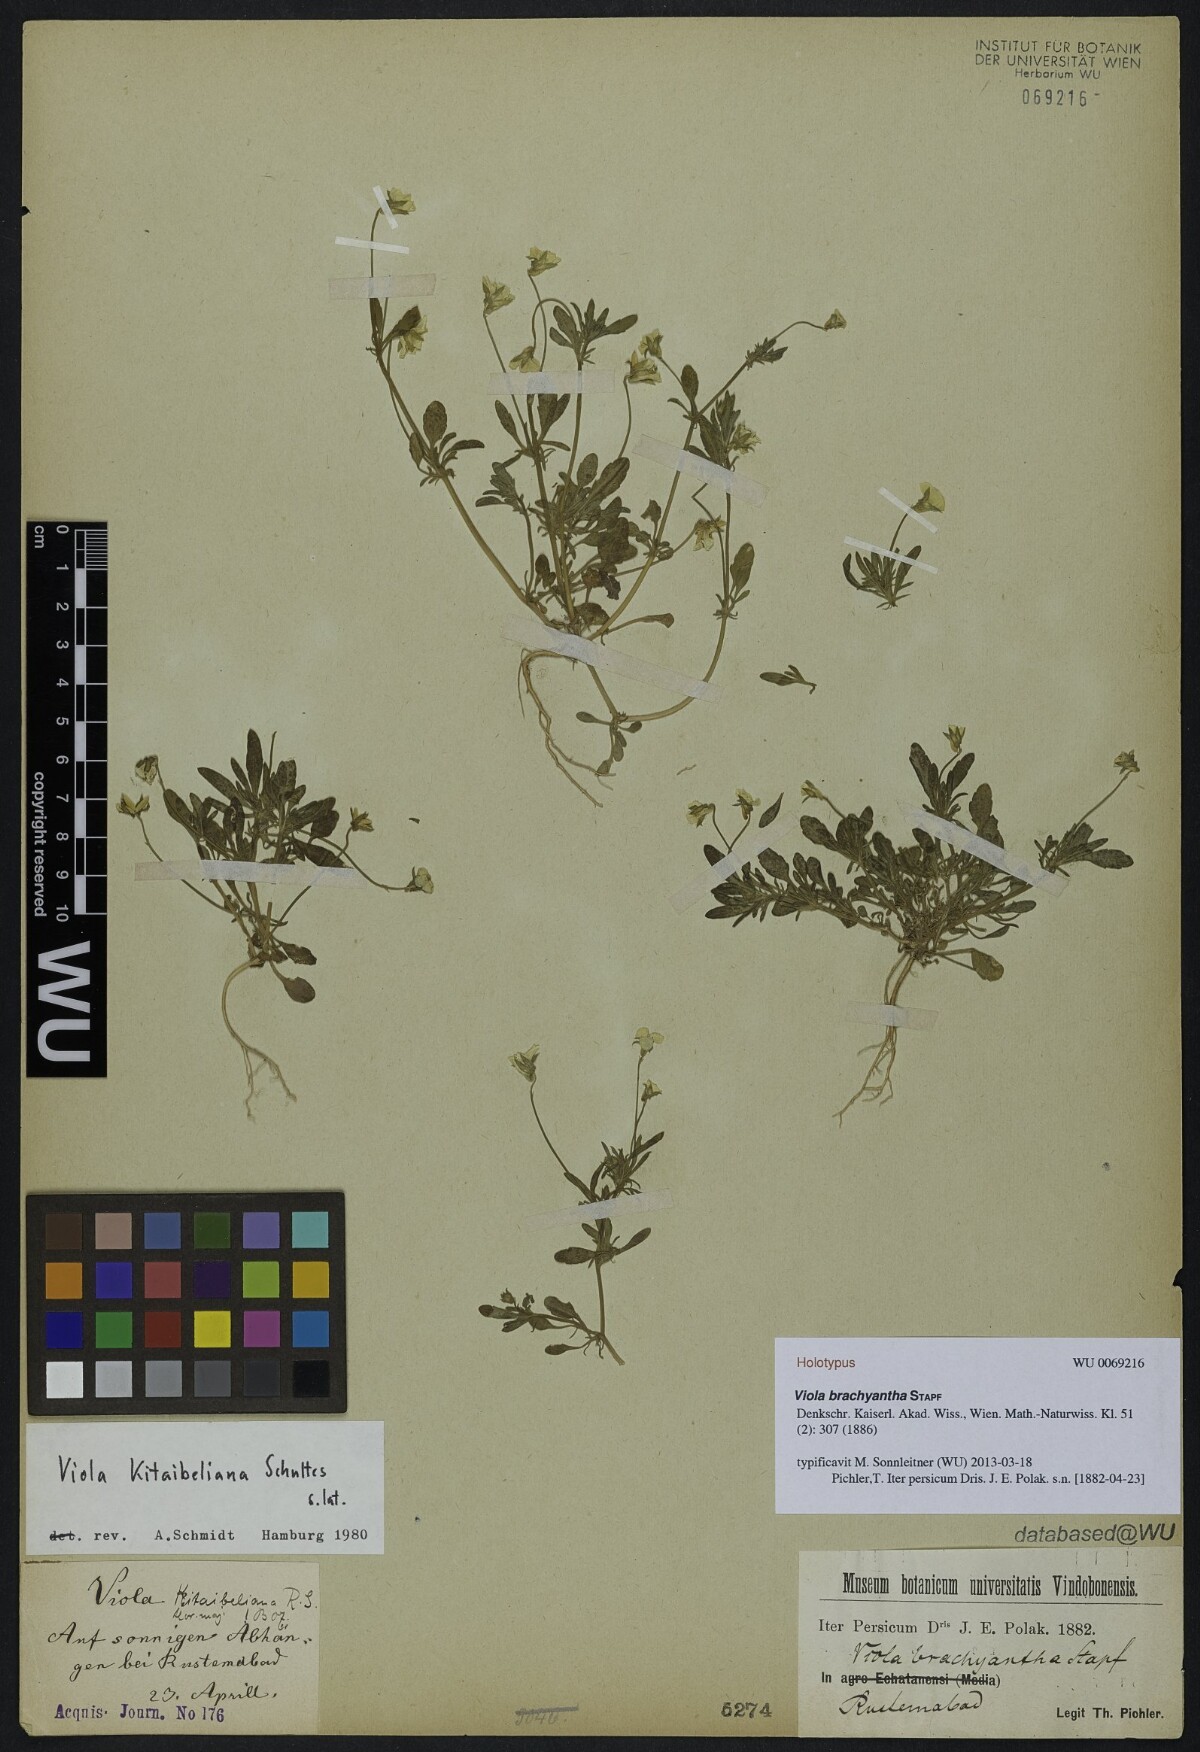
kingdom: Plantae
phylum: Tracheophyta
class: Magnoliopsida
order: Malpighiales
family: Violaceae
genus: Viola
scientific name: Viola kitaibeliana
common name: Dwarf pansy
